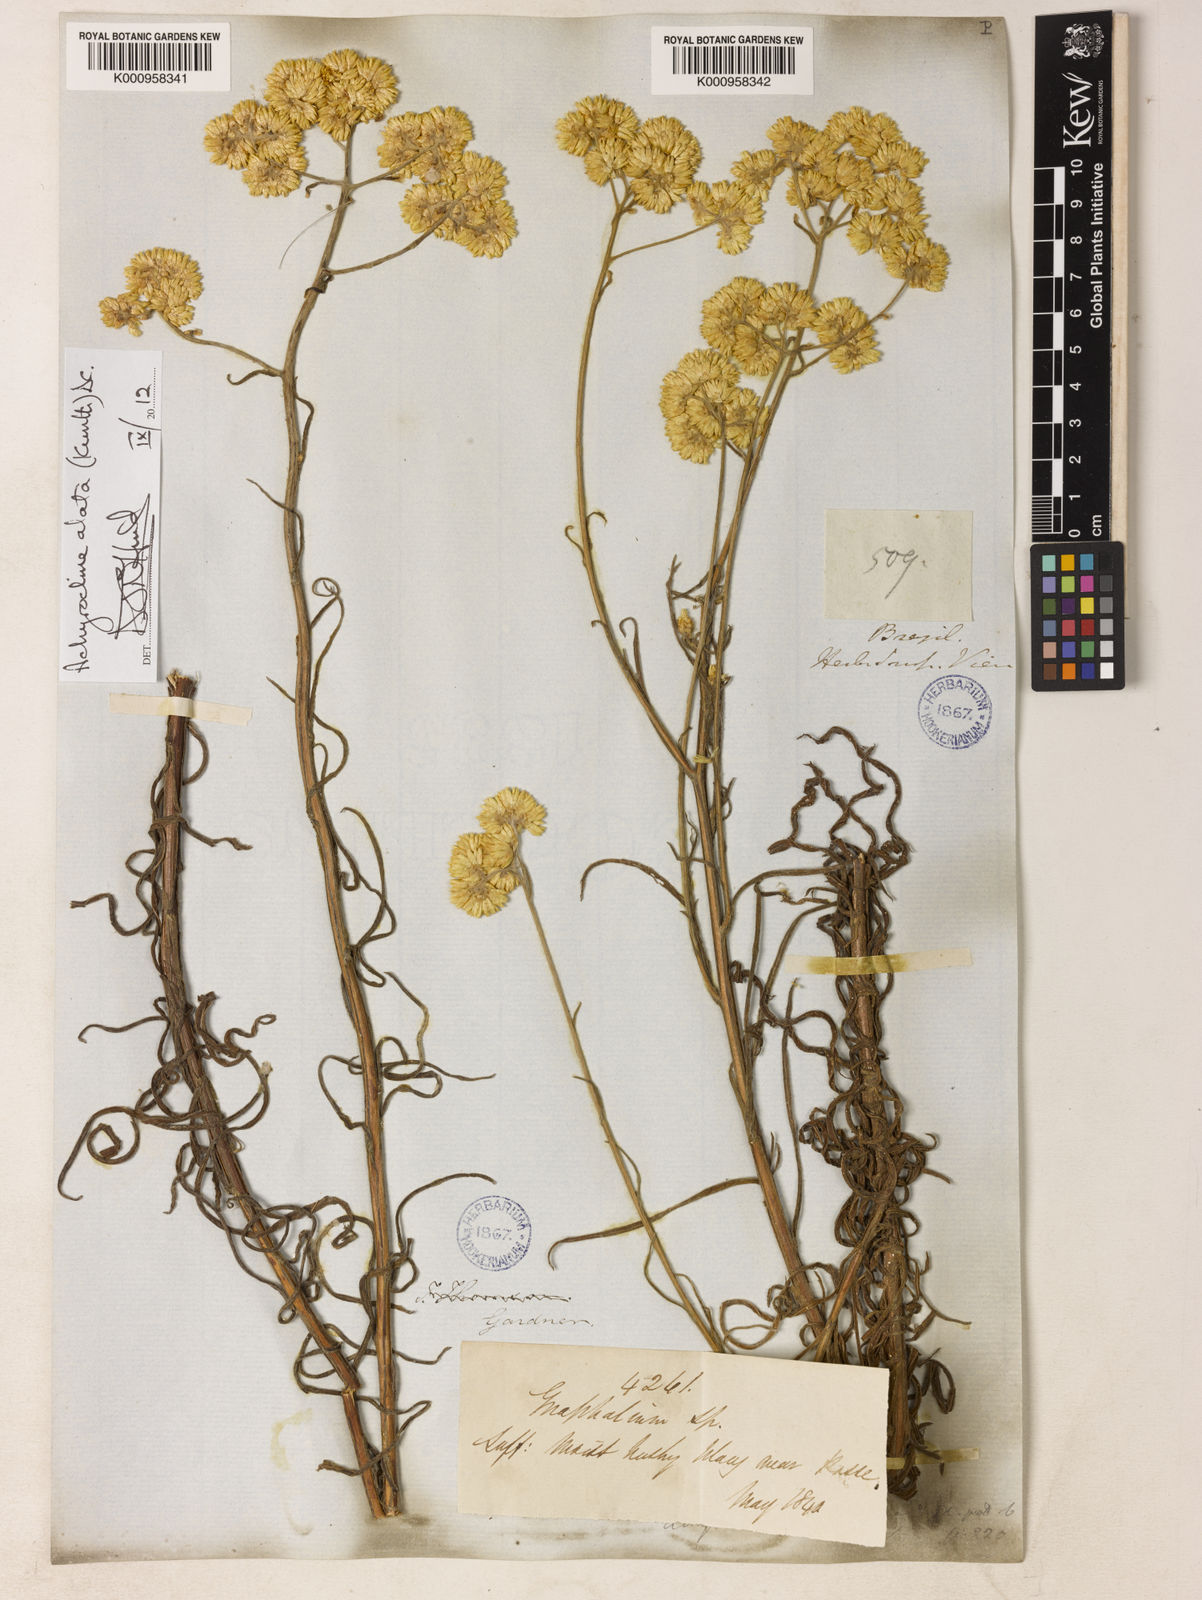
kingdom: Plantae
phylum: Tracheophyta
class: Magnoliopsida
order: Asterales
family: Asteraceae
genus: Achyrocline
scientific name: Achyrocline vauthieriana
